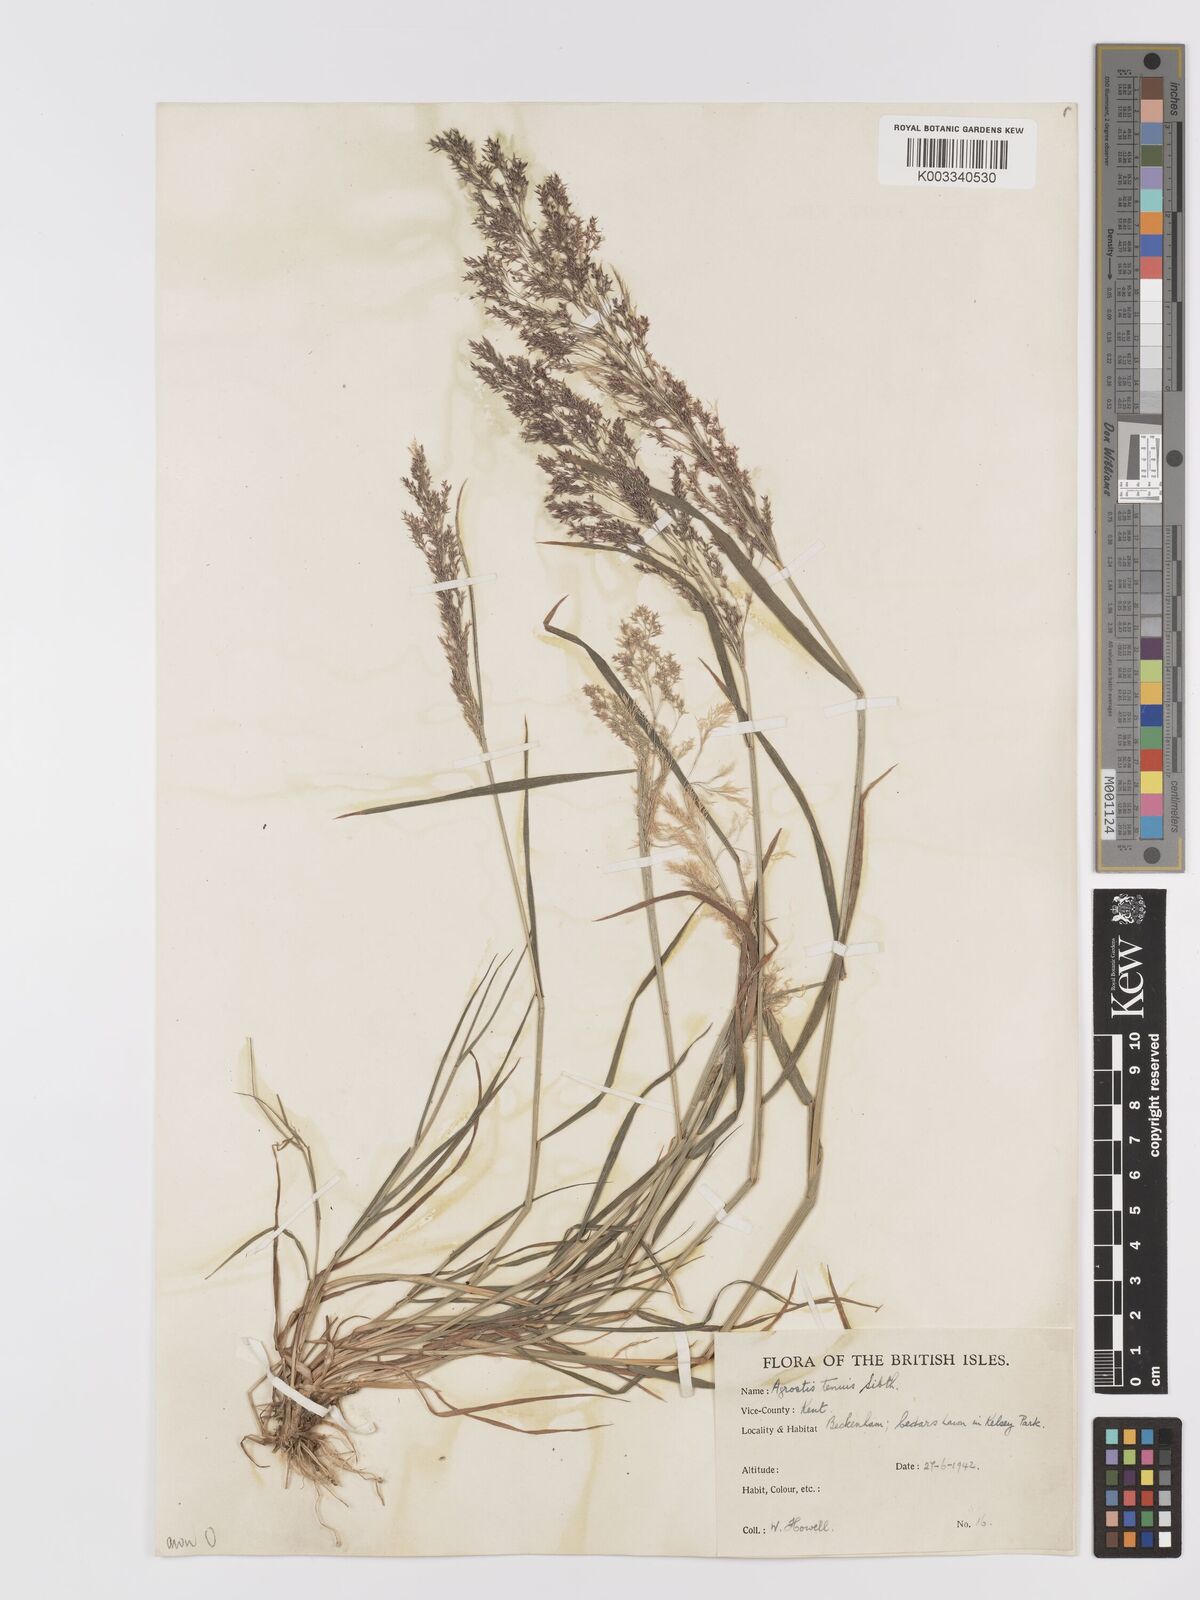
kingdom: Plantae
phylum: Tracheophyta
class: Liliopsida
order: Poales
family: Poaceae
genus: Agrostis
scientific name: Agrostis capillaris
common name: Colonial bentgrass
